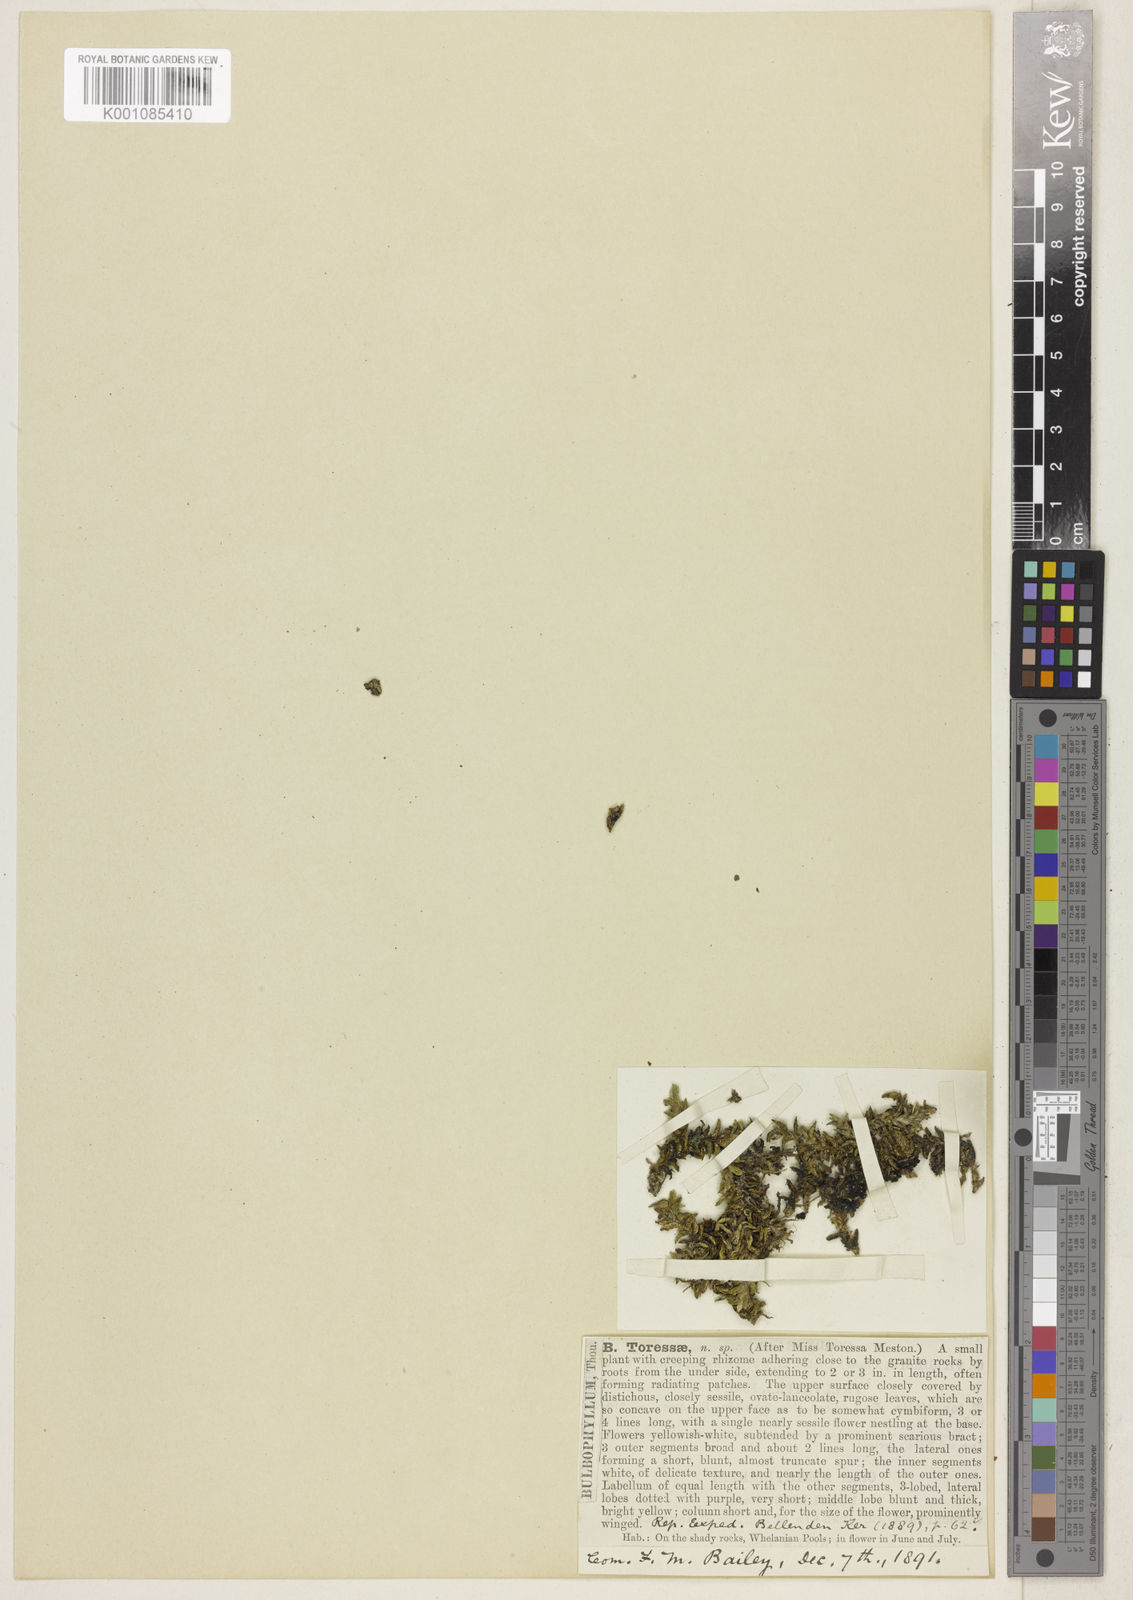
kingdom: Plantae
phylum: Tracheophyta
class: Liliopsida
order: Asparagales
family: Orchidaceae
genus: Dendrobium
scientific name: Dendrobium toressae
